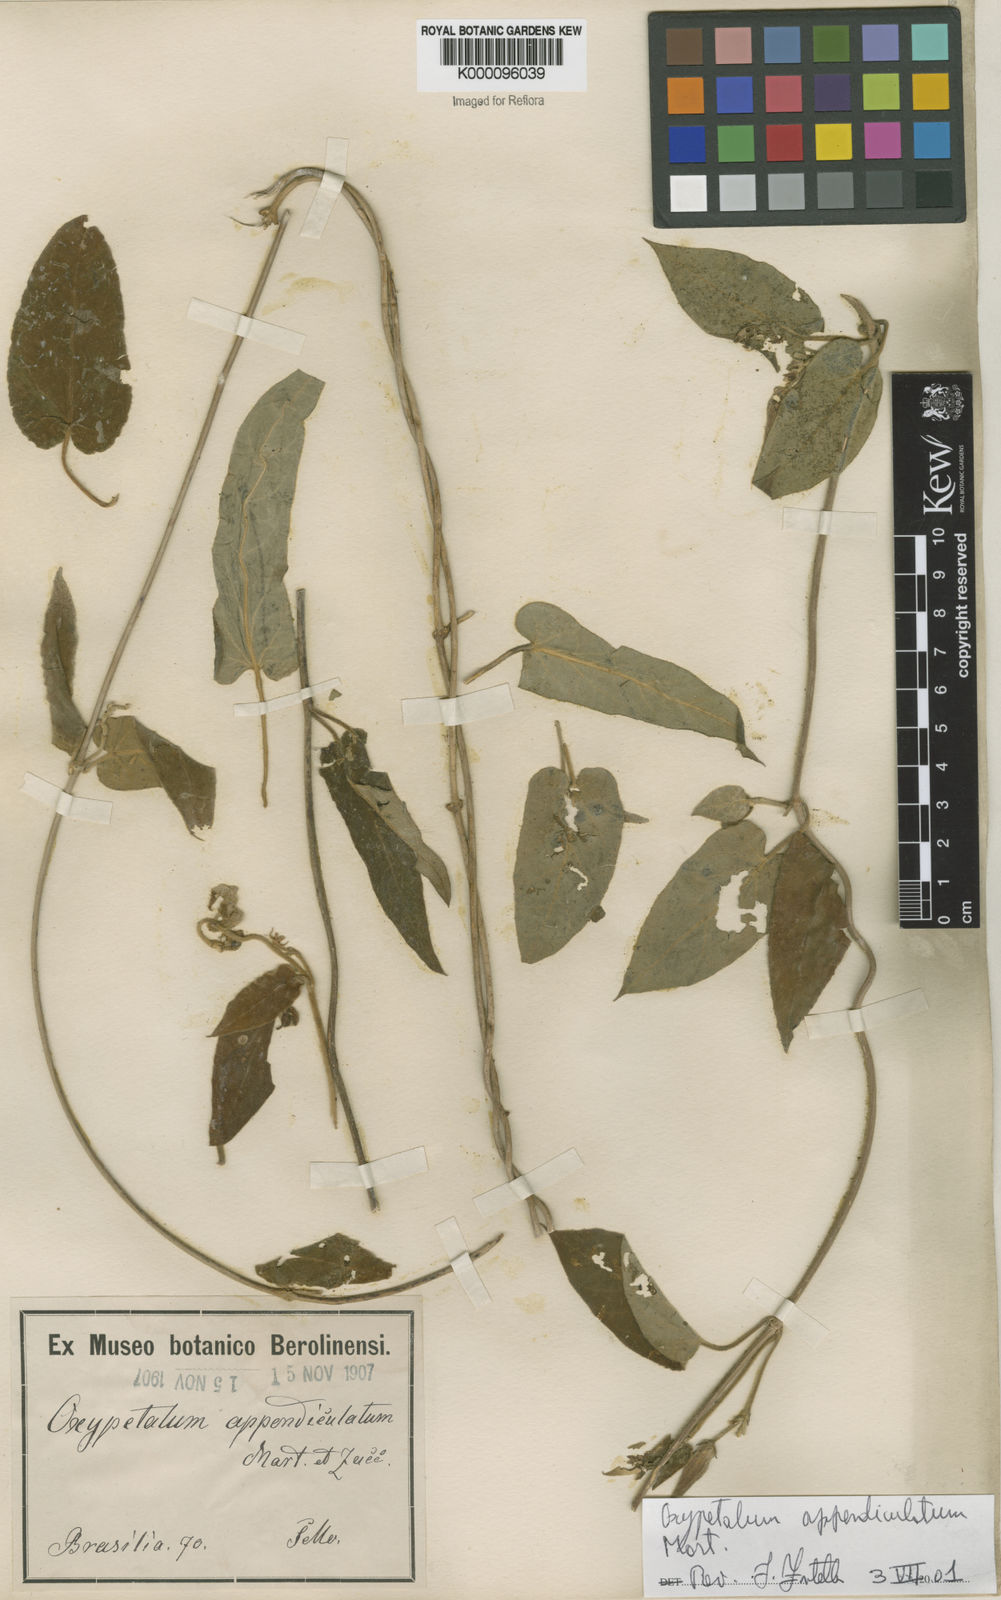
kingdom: Plantae
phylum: Tracheophyta
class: Magnoliopsida
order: Gentianales
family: Apocynaceae
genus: Oxypetalum
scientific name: Oxypetalum appendiculatum
